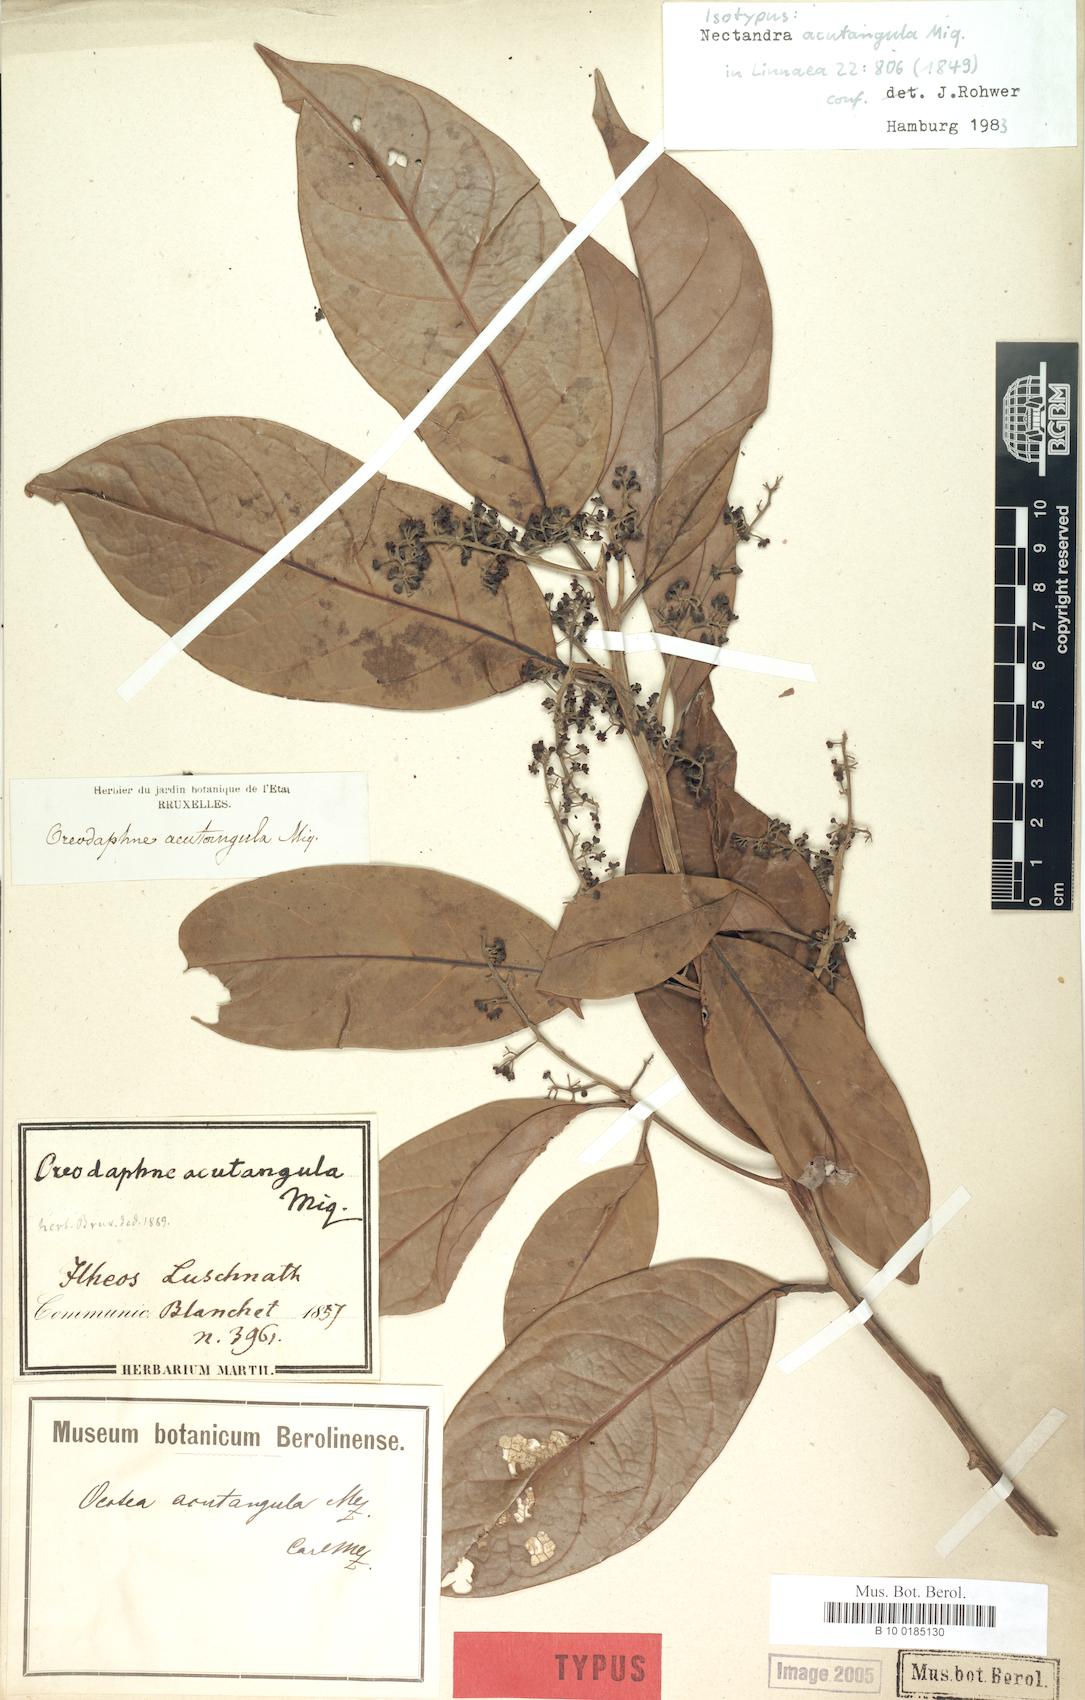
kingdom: Plantae
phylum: Tracheophyta
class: Magnoliopsida
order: Laurales
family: Lauraceae
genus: Ocotea
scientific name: Ocotea acutangula
